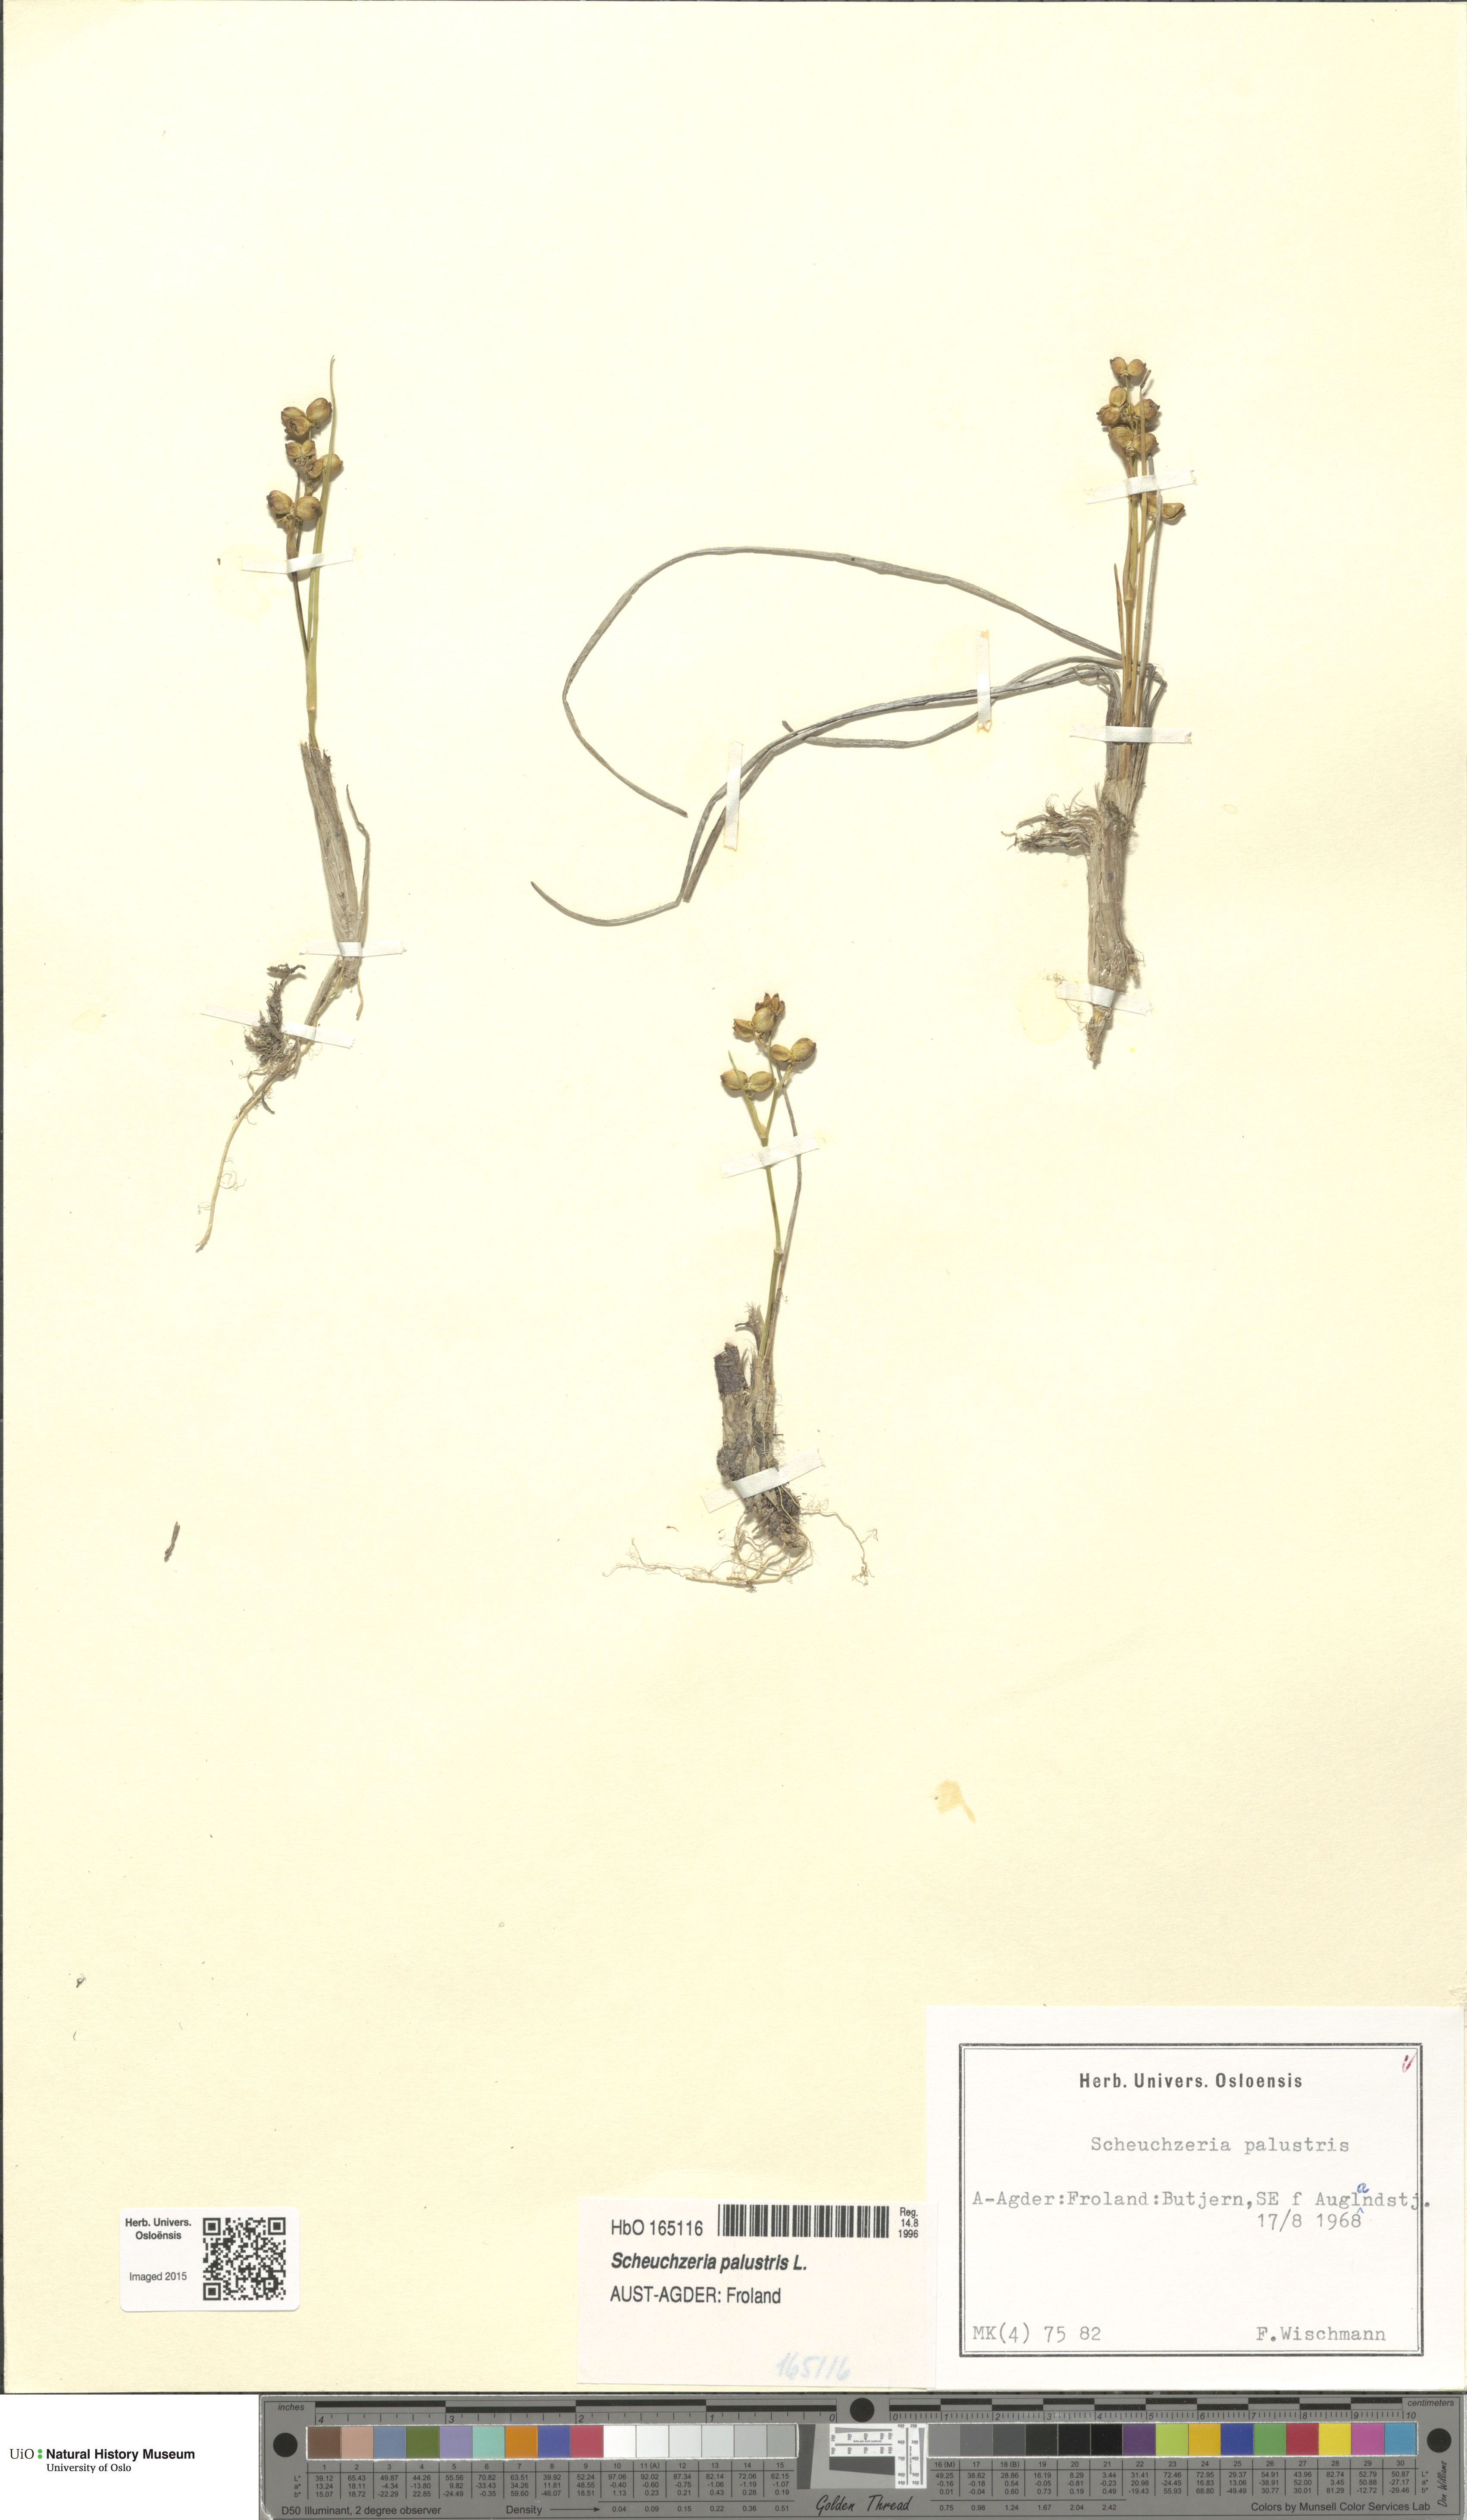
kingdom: Plantae
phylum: Tracheophyta
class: Liliopsida
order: Alismatales
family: Scheuchzeriaceae
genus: Scheuchzeria
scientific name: Scheuchzeria palustris
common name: Rannoch-rush
